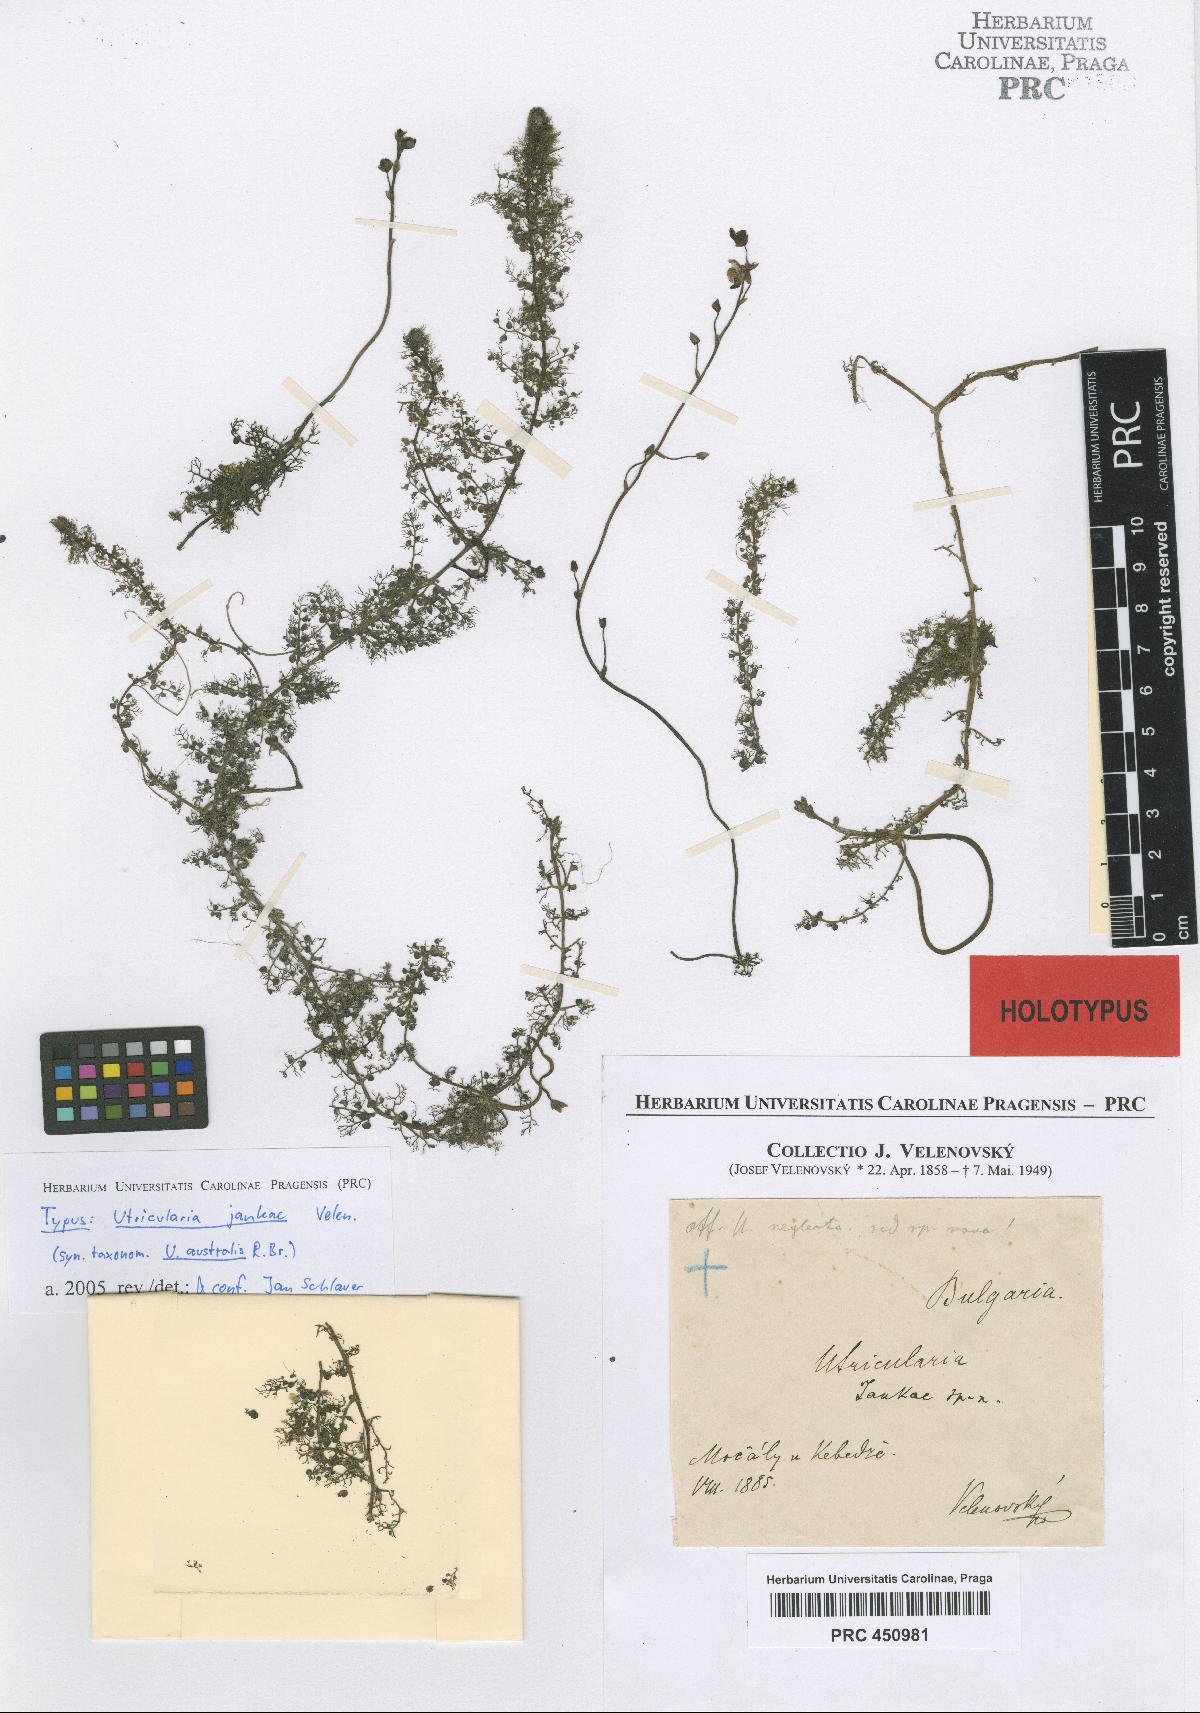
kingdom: Plantae
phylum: Tracheophyta
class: Magnoliopsida
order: Lamiales
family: Lentibulariaceae
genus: Utricularia
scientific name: Utricularia neglecta
